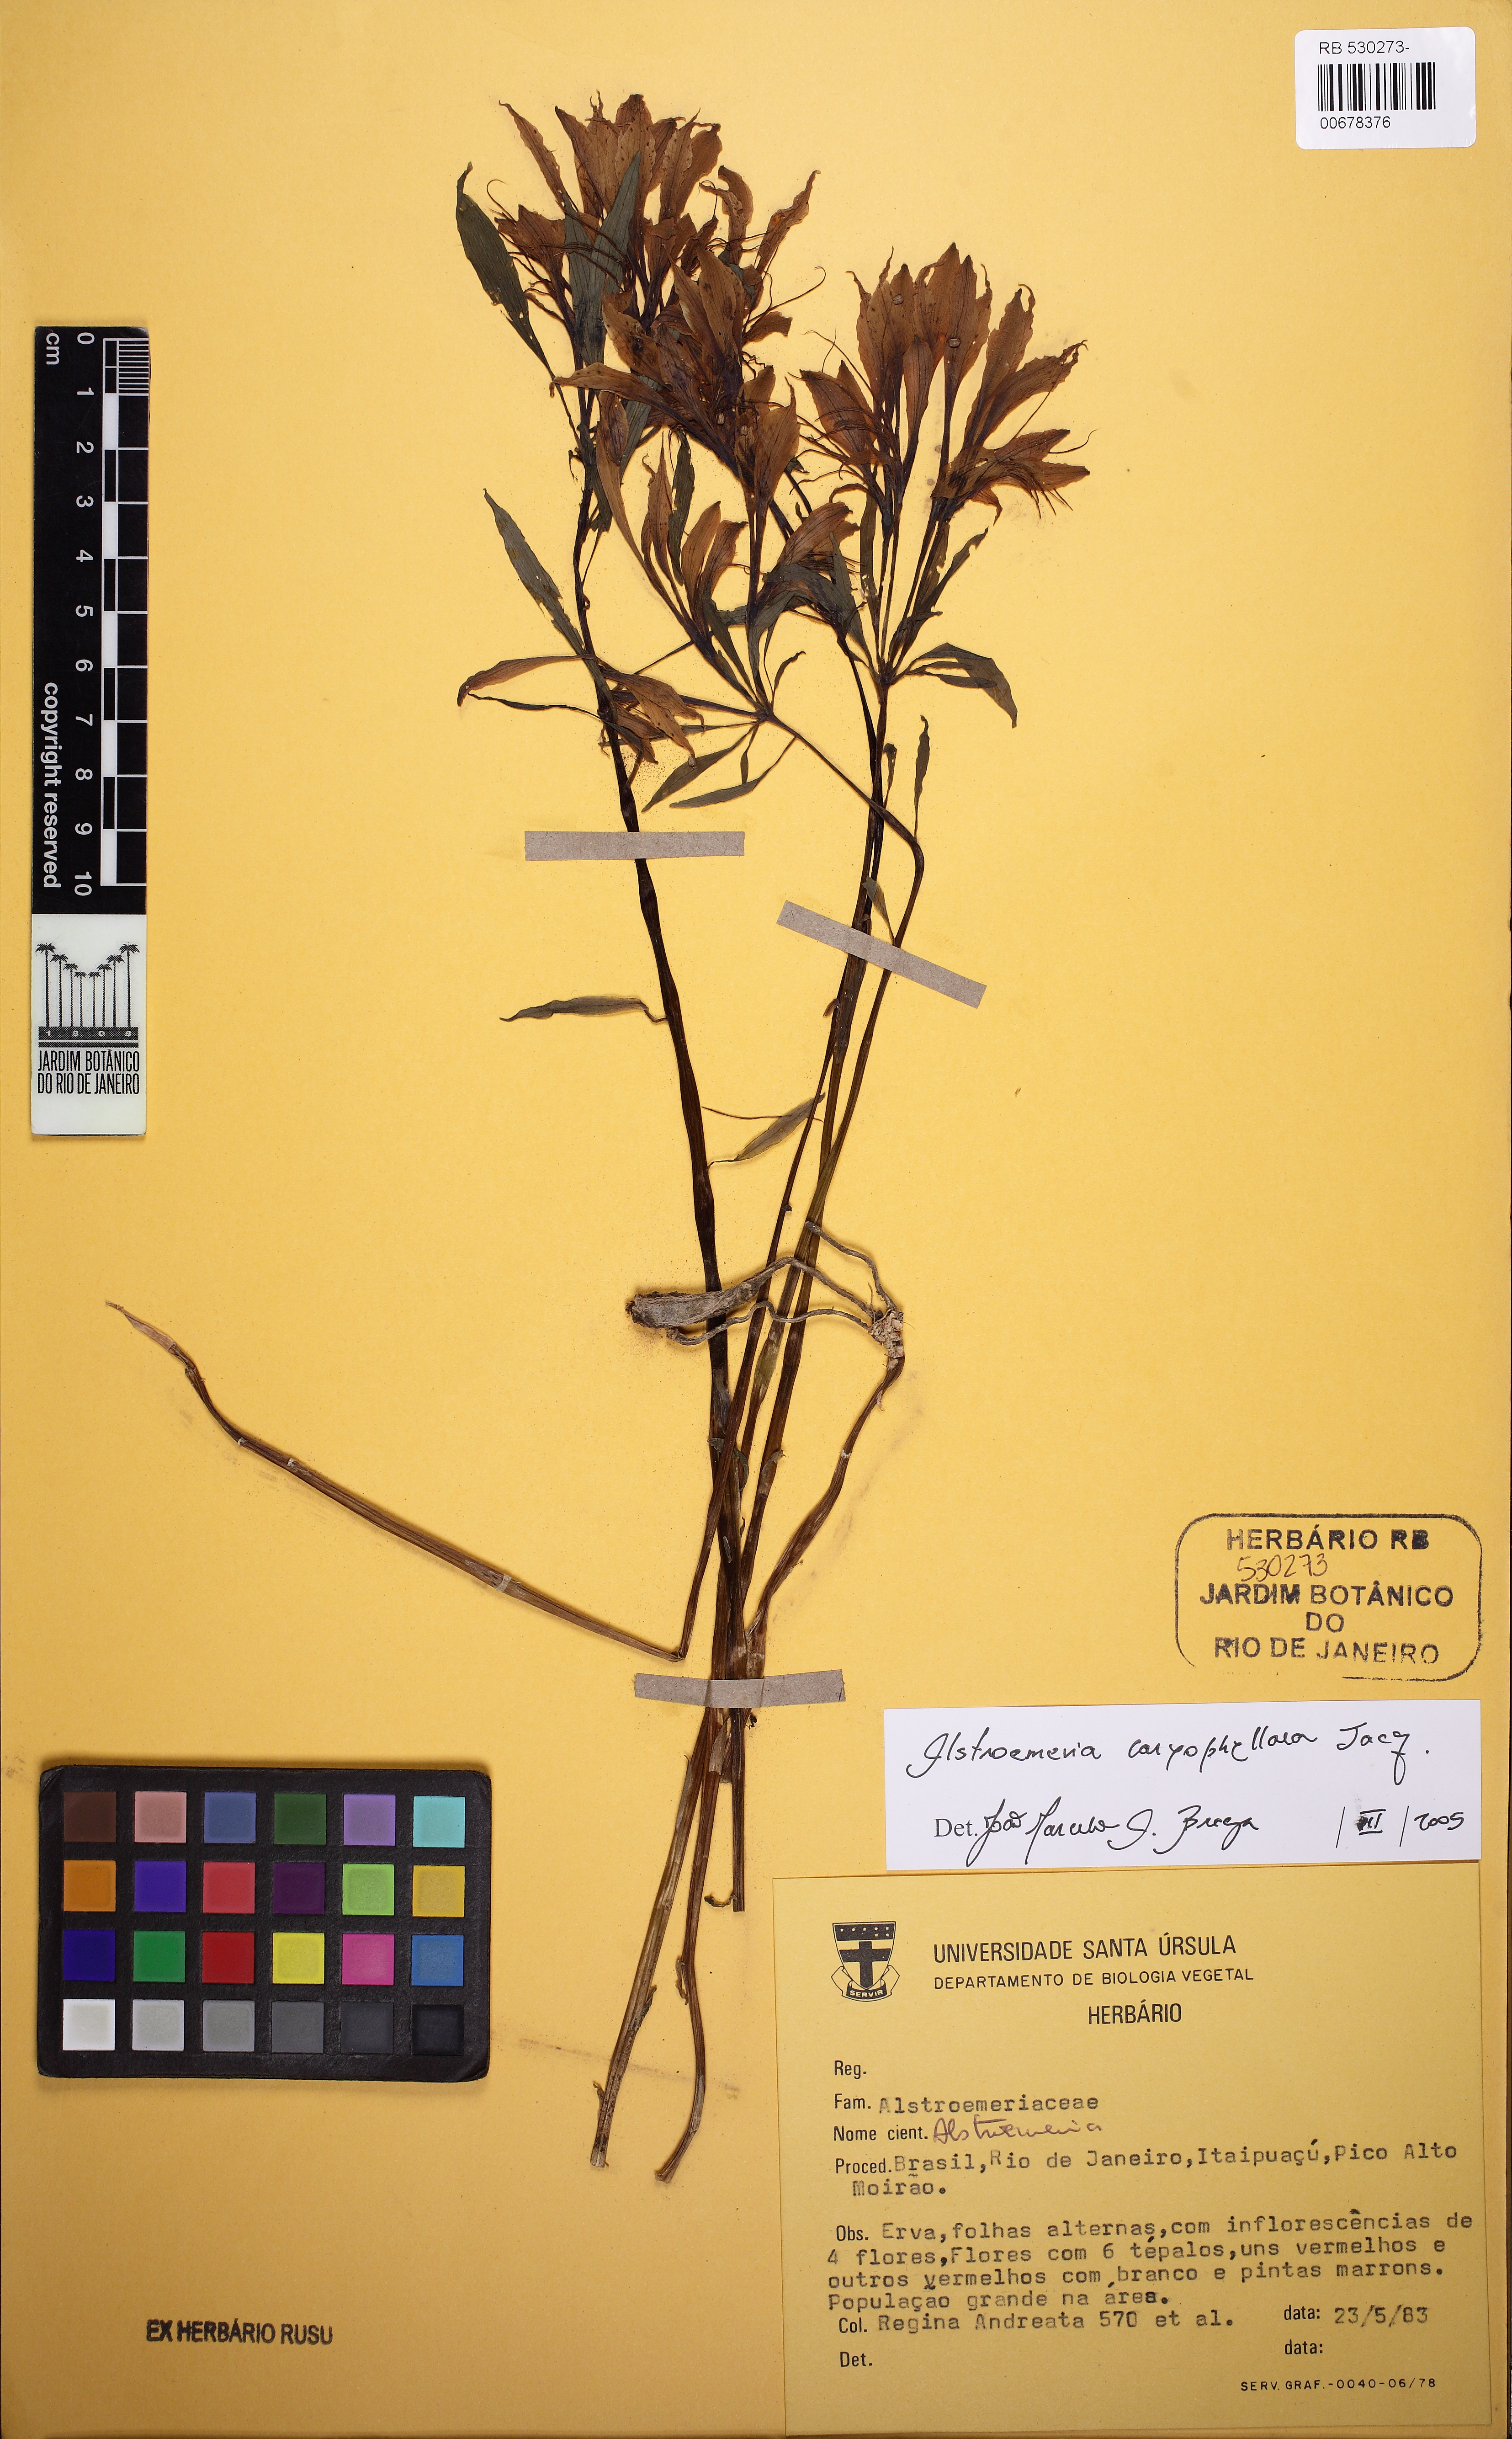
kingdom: Plantae
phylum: Tracheophyta
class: Liliopsida
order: Liliales
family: Alstroemeriaceae
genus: Alstroemeria
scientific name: Alstroemeria caryophyllaea
